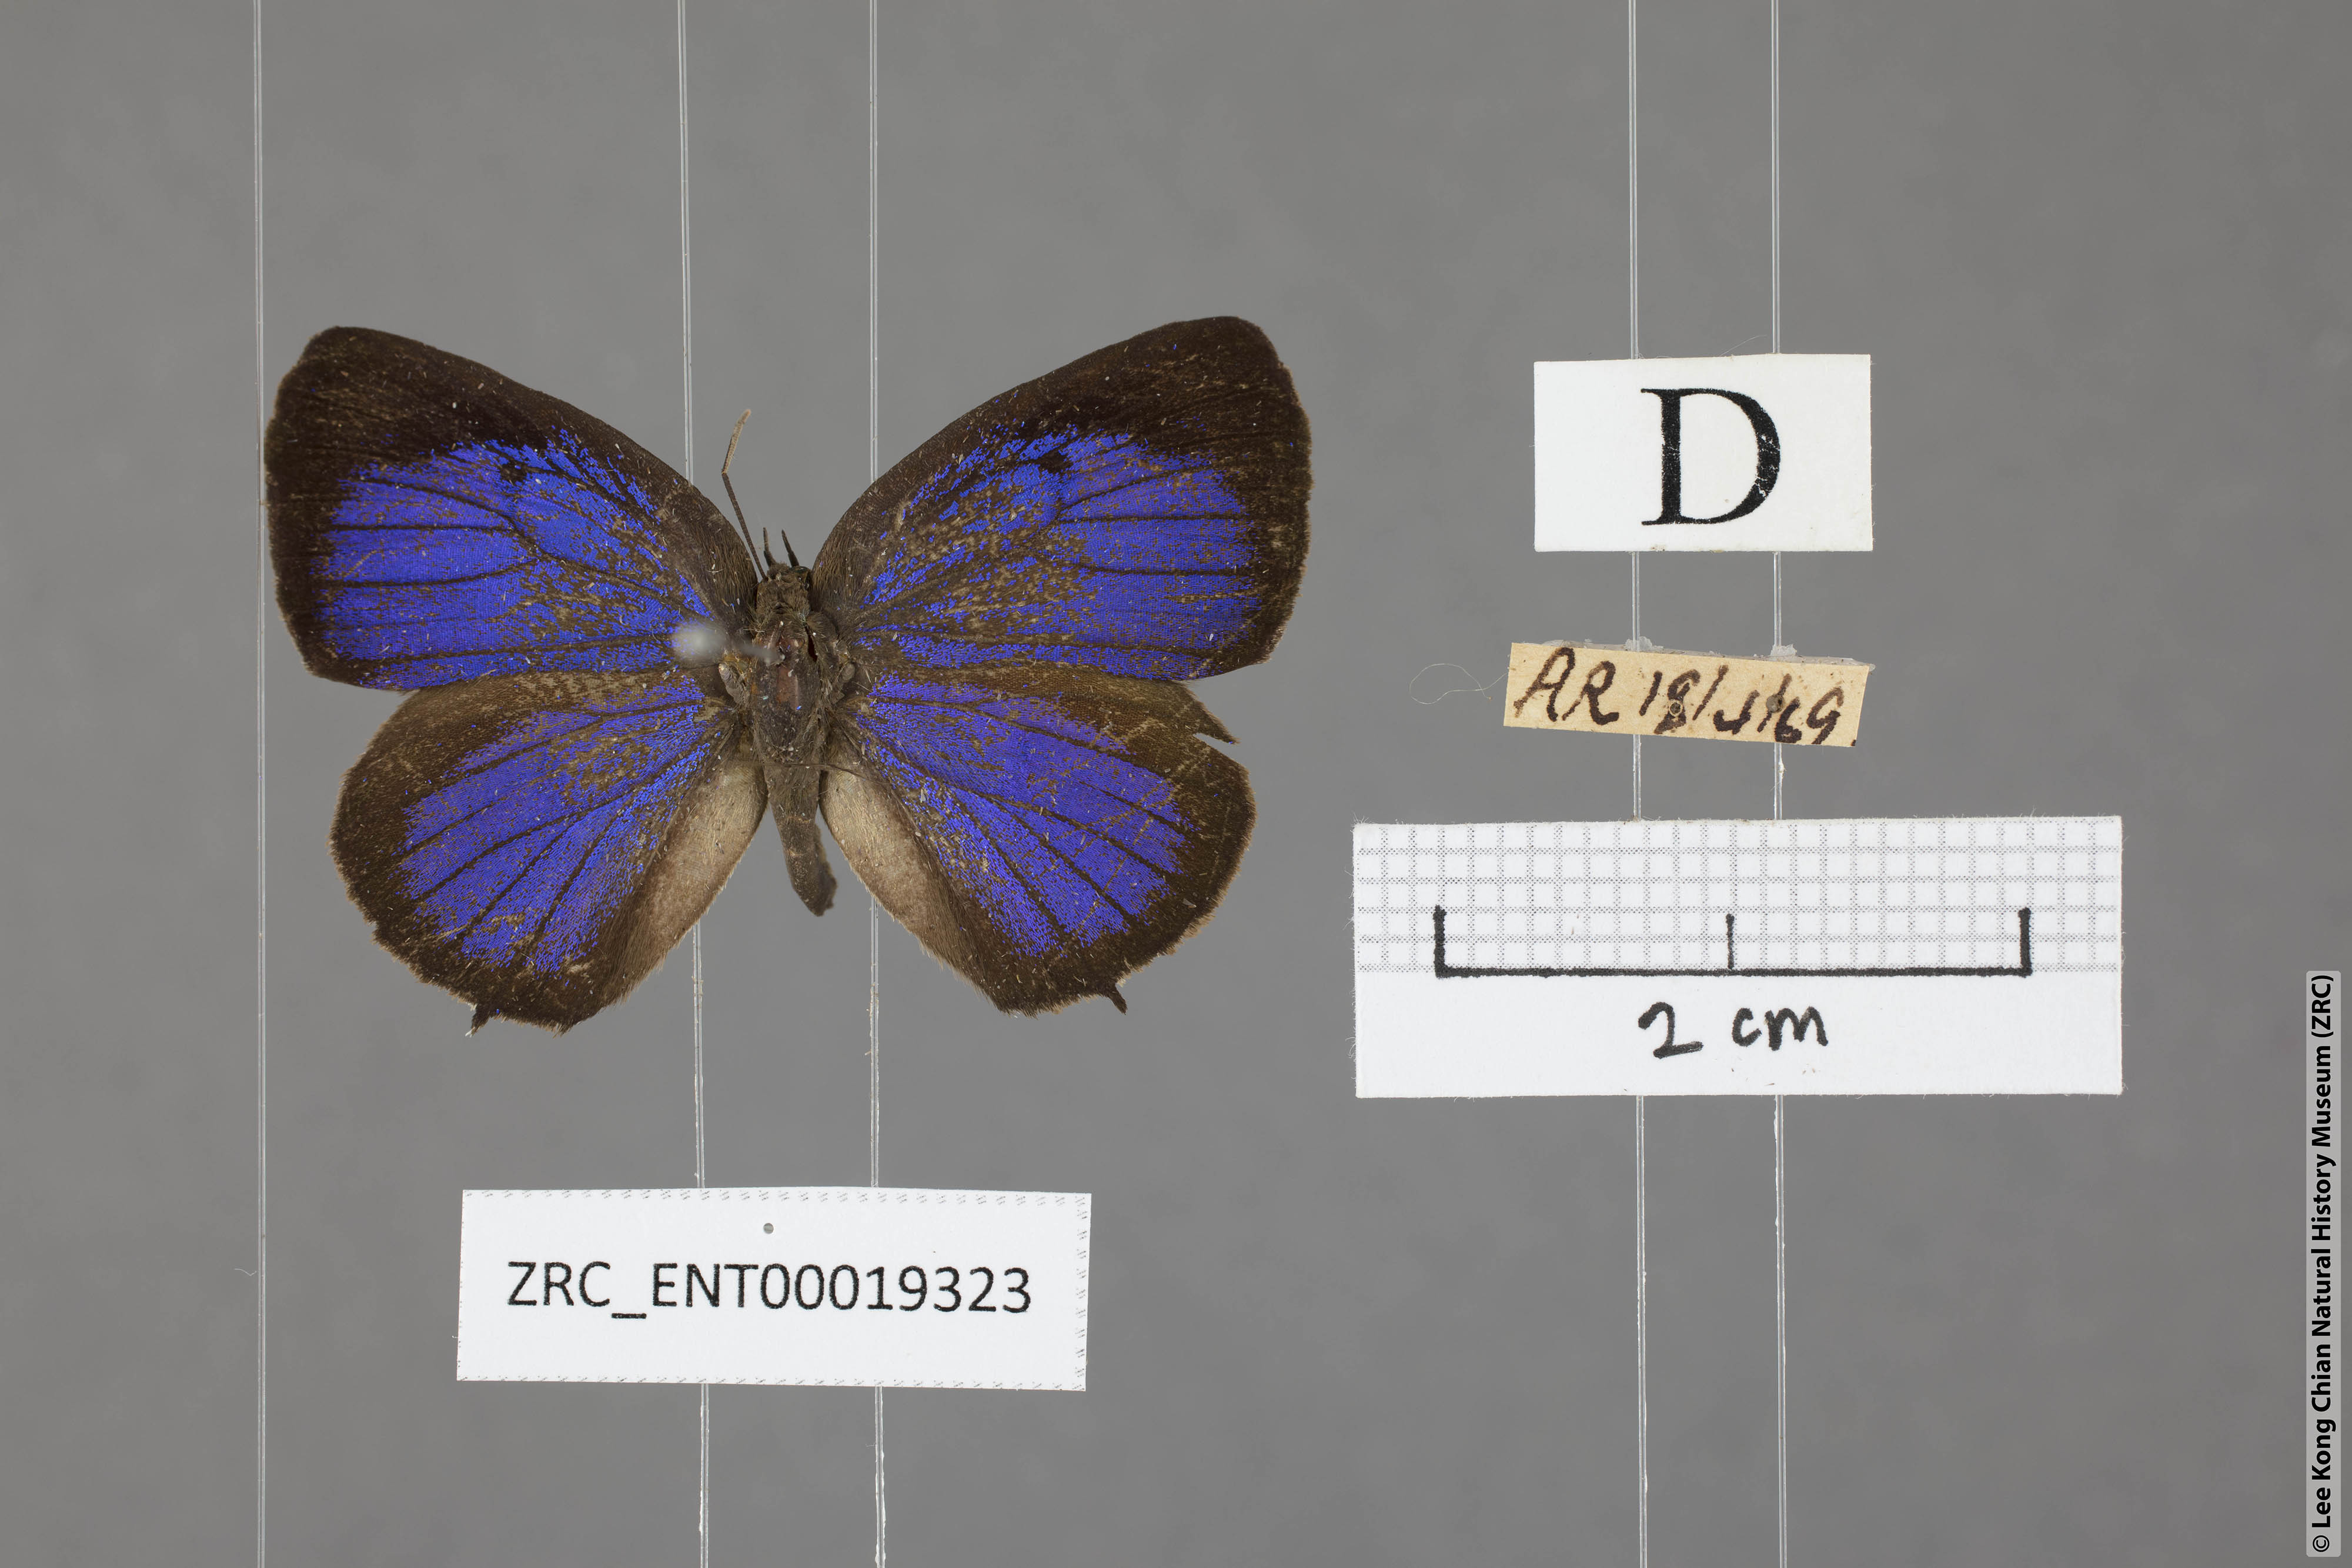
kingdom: Animalia
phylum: Arthropoda
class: Insecta
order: Lepidoptera
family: Lycaenidae
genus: Arhopala
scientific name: Arhopala buddha
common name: Buddha oakblue
